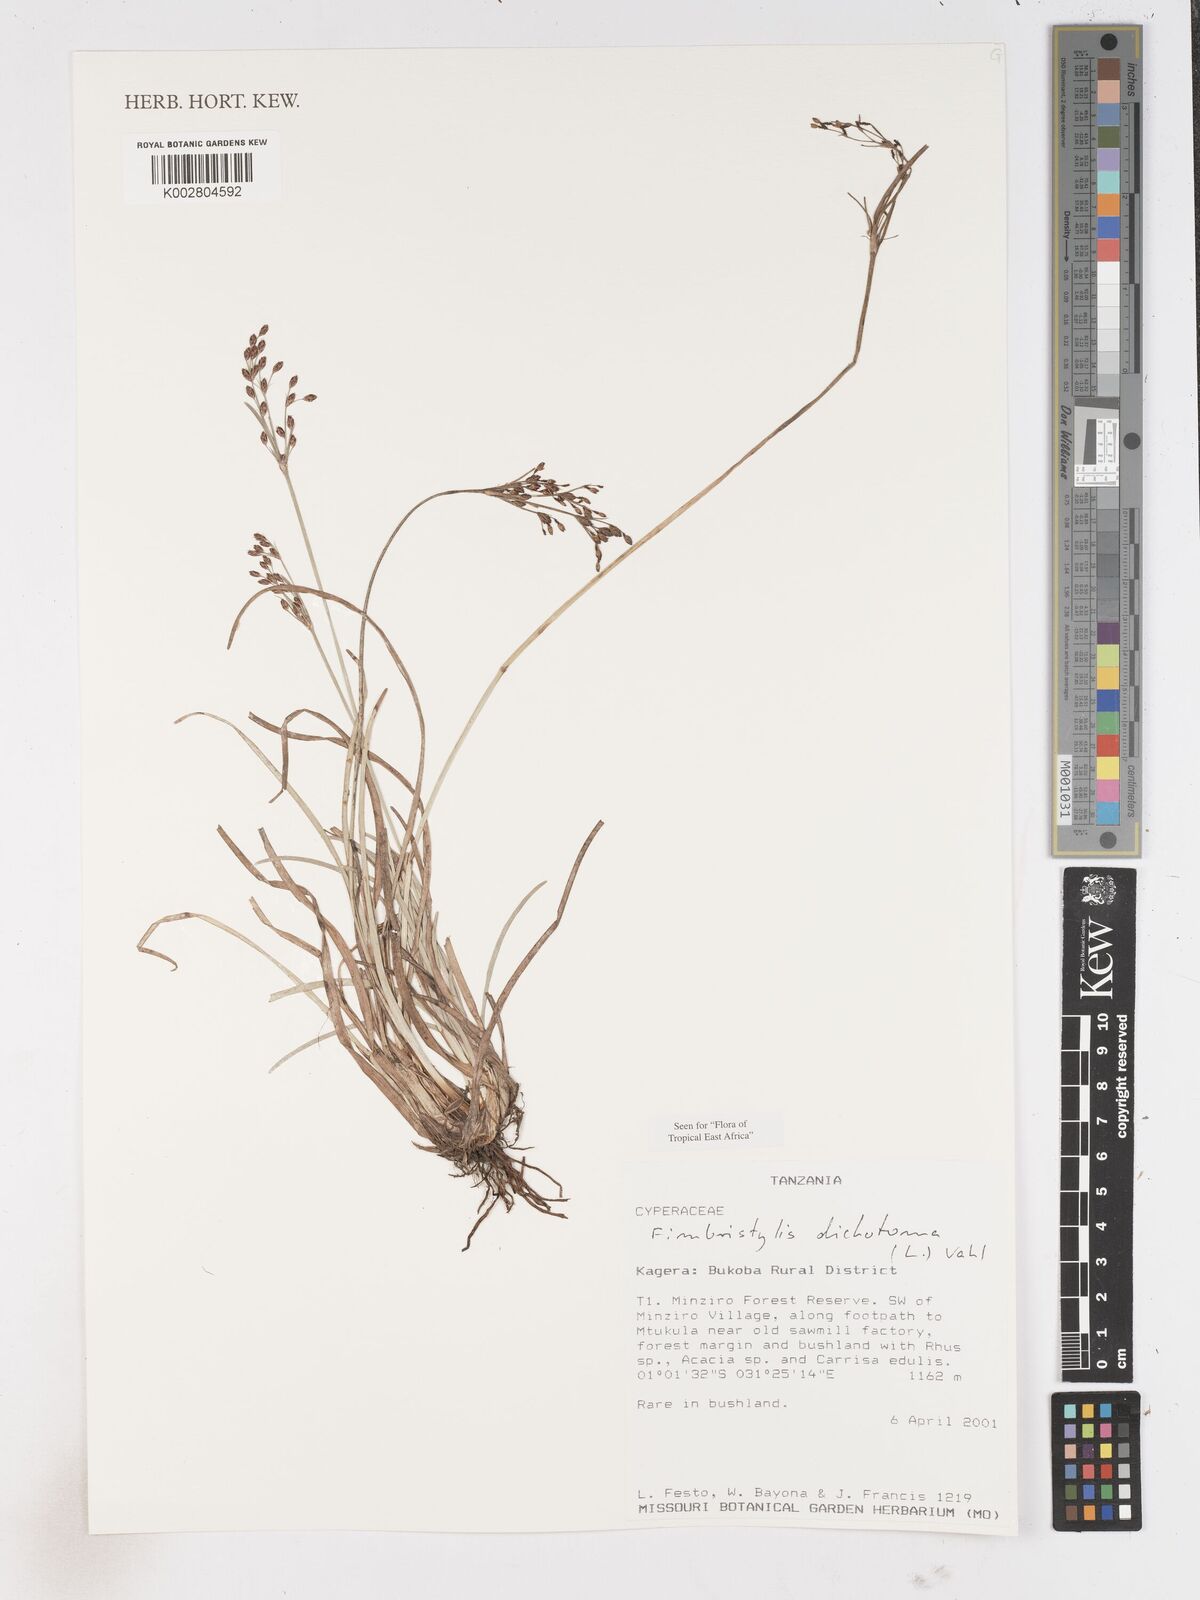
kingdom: Plantae
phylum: Tracheophyta
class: Liliopsida
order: Poales
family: Cyperaceae
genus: Fimbristylis
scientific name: Fimbristylis dichotoma
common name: Forked fimbry
